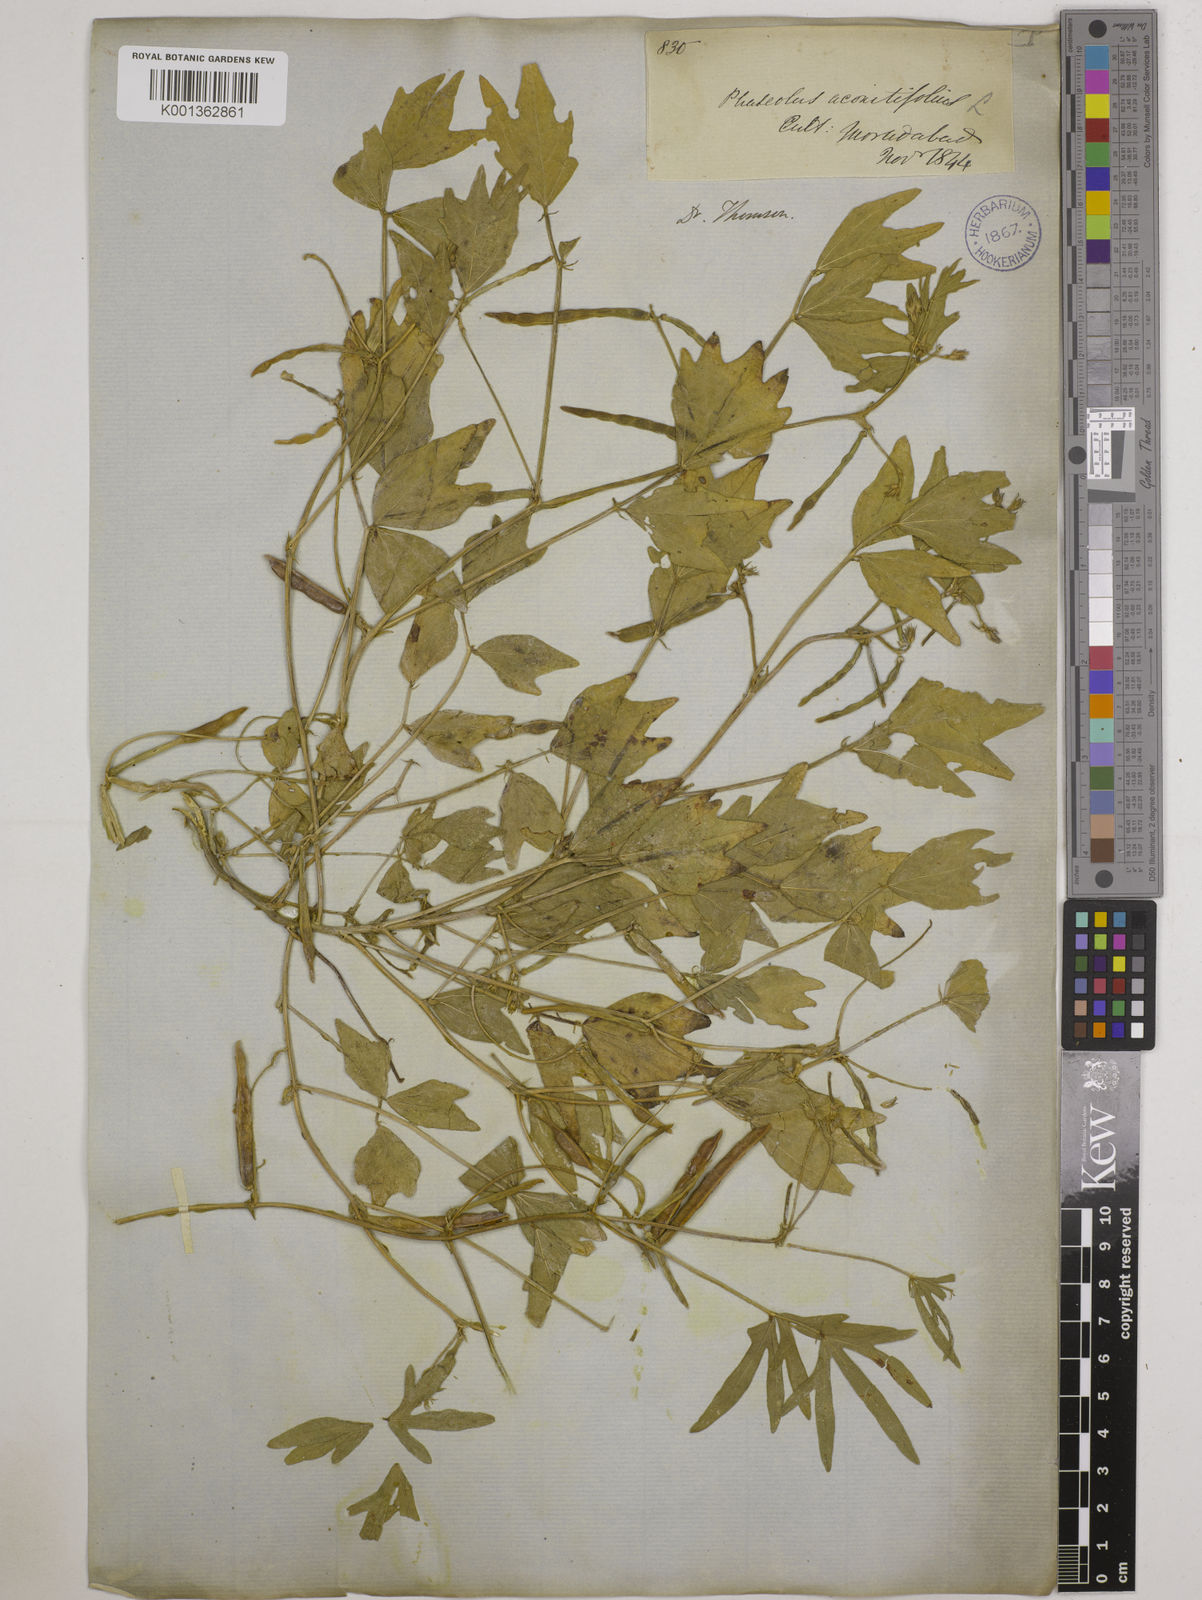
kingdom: Plantae
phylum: Tracheophyta
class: Magnoliopsida
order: Fabales
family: Fabaceae
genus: Vigna
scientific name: Vigna aconitifolia
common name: Dew bean
